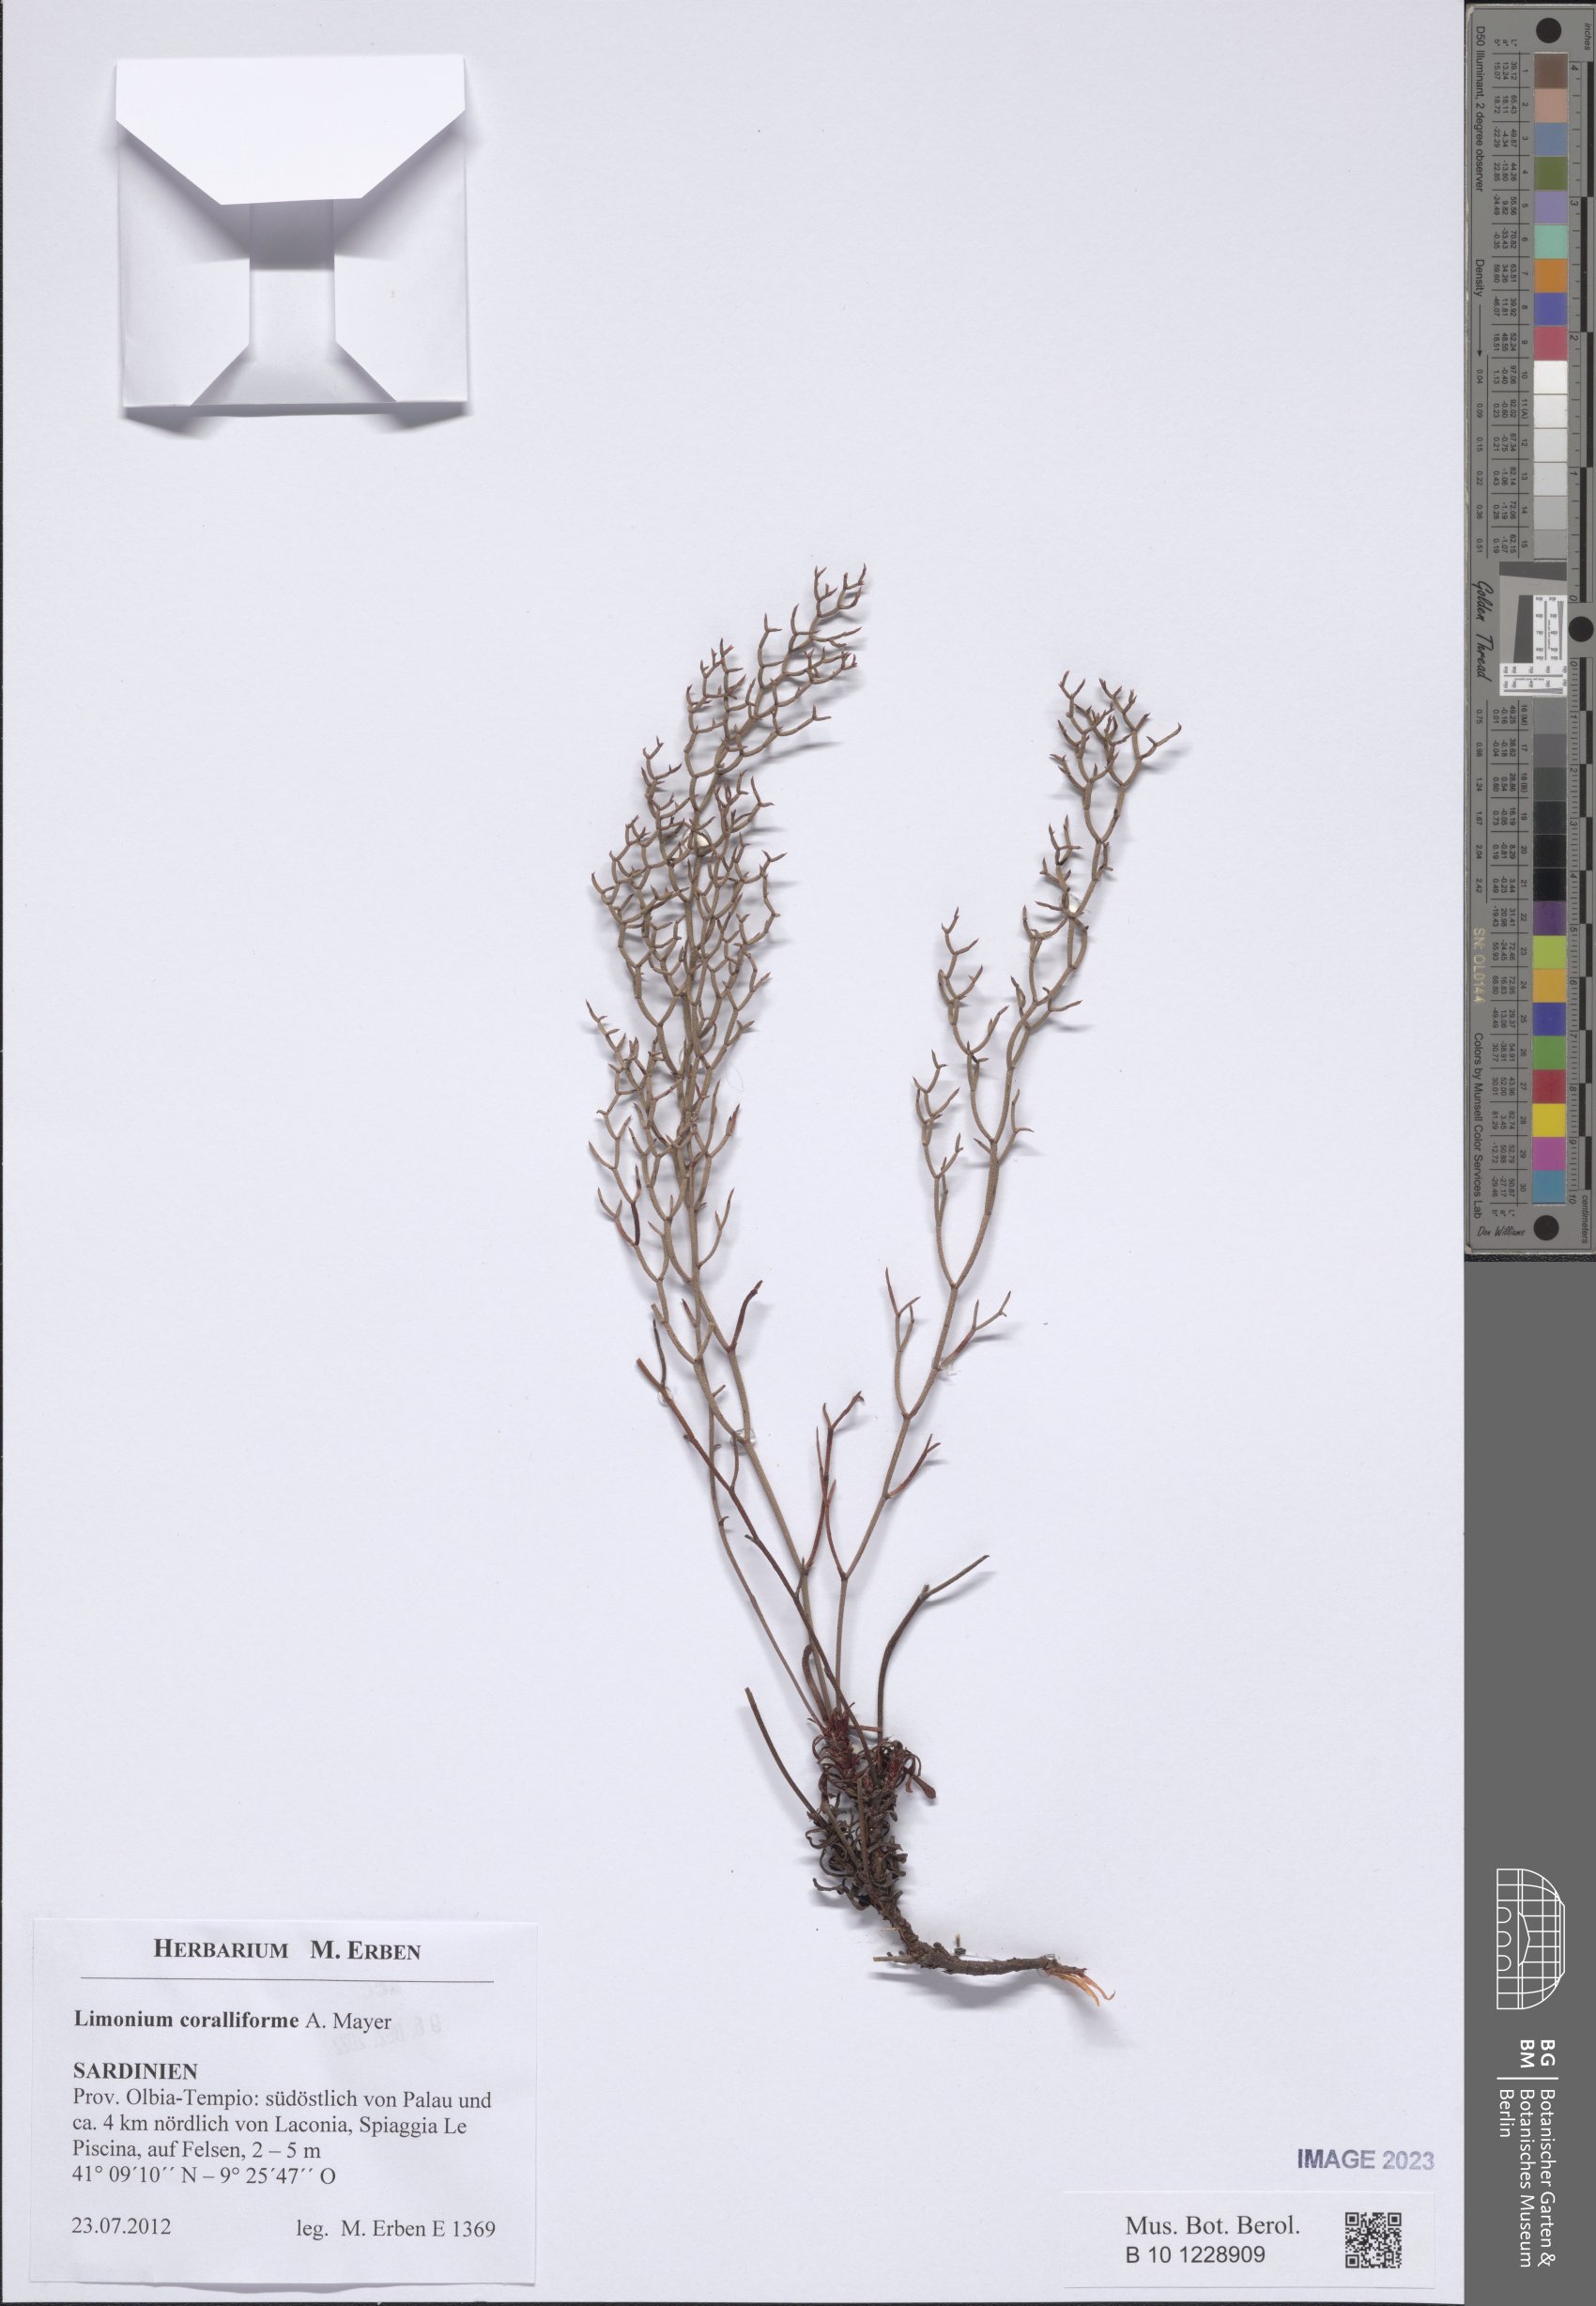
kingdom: Plantae
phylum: Tracheophyta
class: Magnoliopsida
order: Caryophyllales
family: Plumbaginaceae
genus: Limonium
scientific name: Limonium coralliforme
